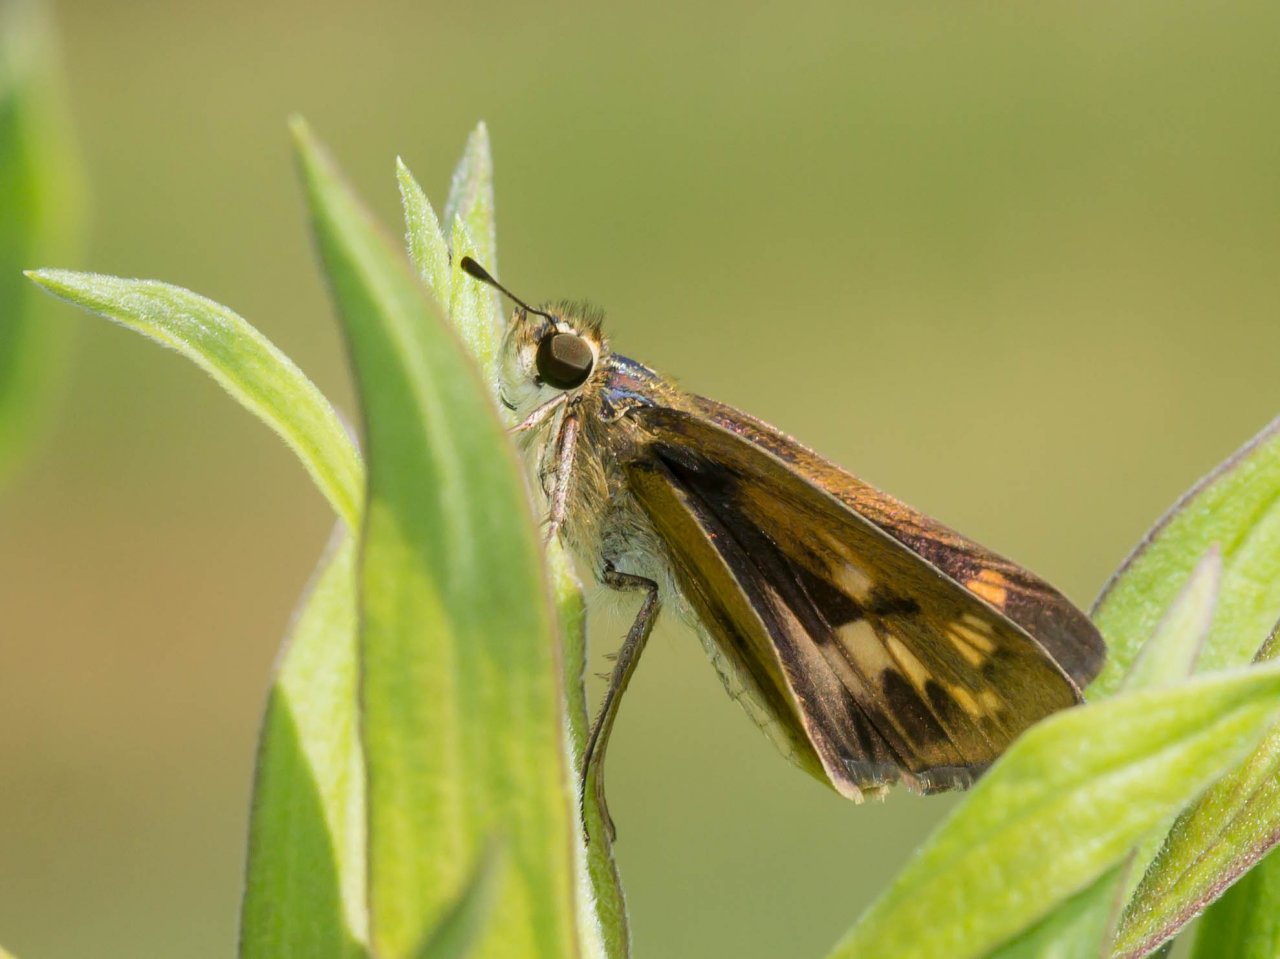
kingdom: Animalia
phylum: Arthropoda
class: Insecta
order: Lepidoptera
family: Hesperiidae
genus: Hylephila
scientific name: Hylephila phyleus
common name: Fiery Skipper
